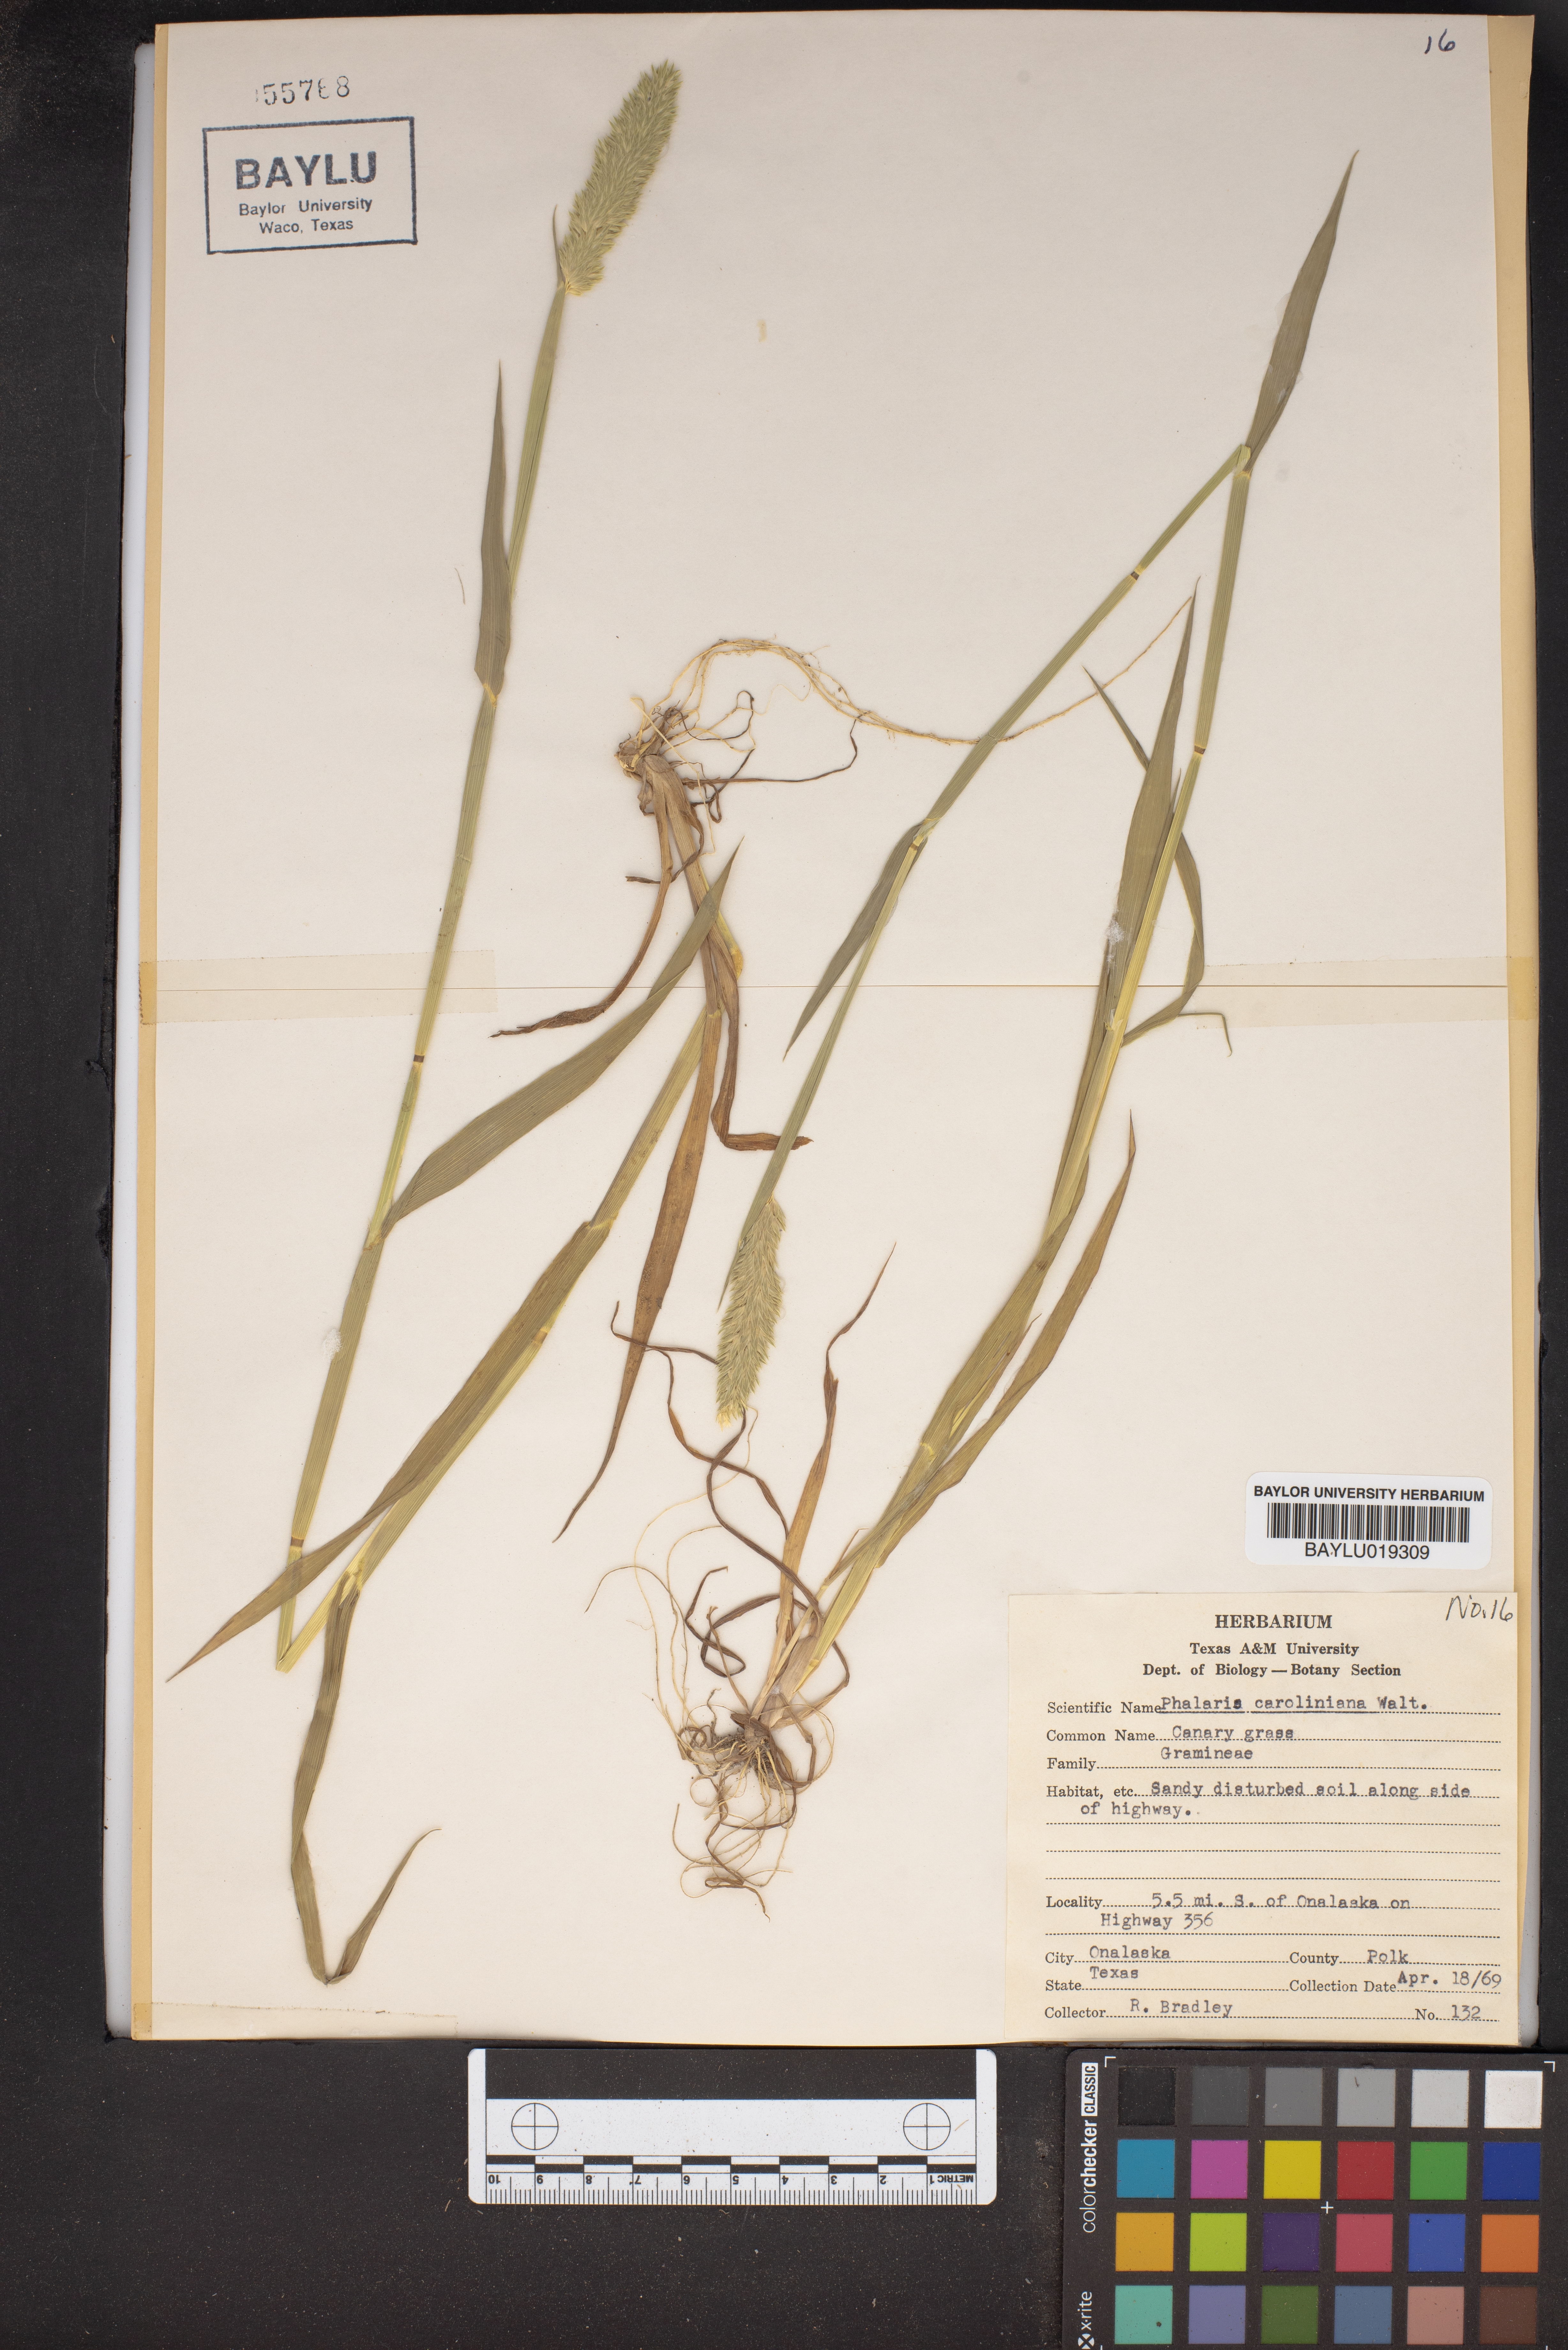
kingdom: Plantae
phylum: Tracheophyta
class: Liliopsida
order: Poales
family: Poaceae
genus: Phalaris
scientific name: Phalaris caroliniana
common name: May grass
